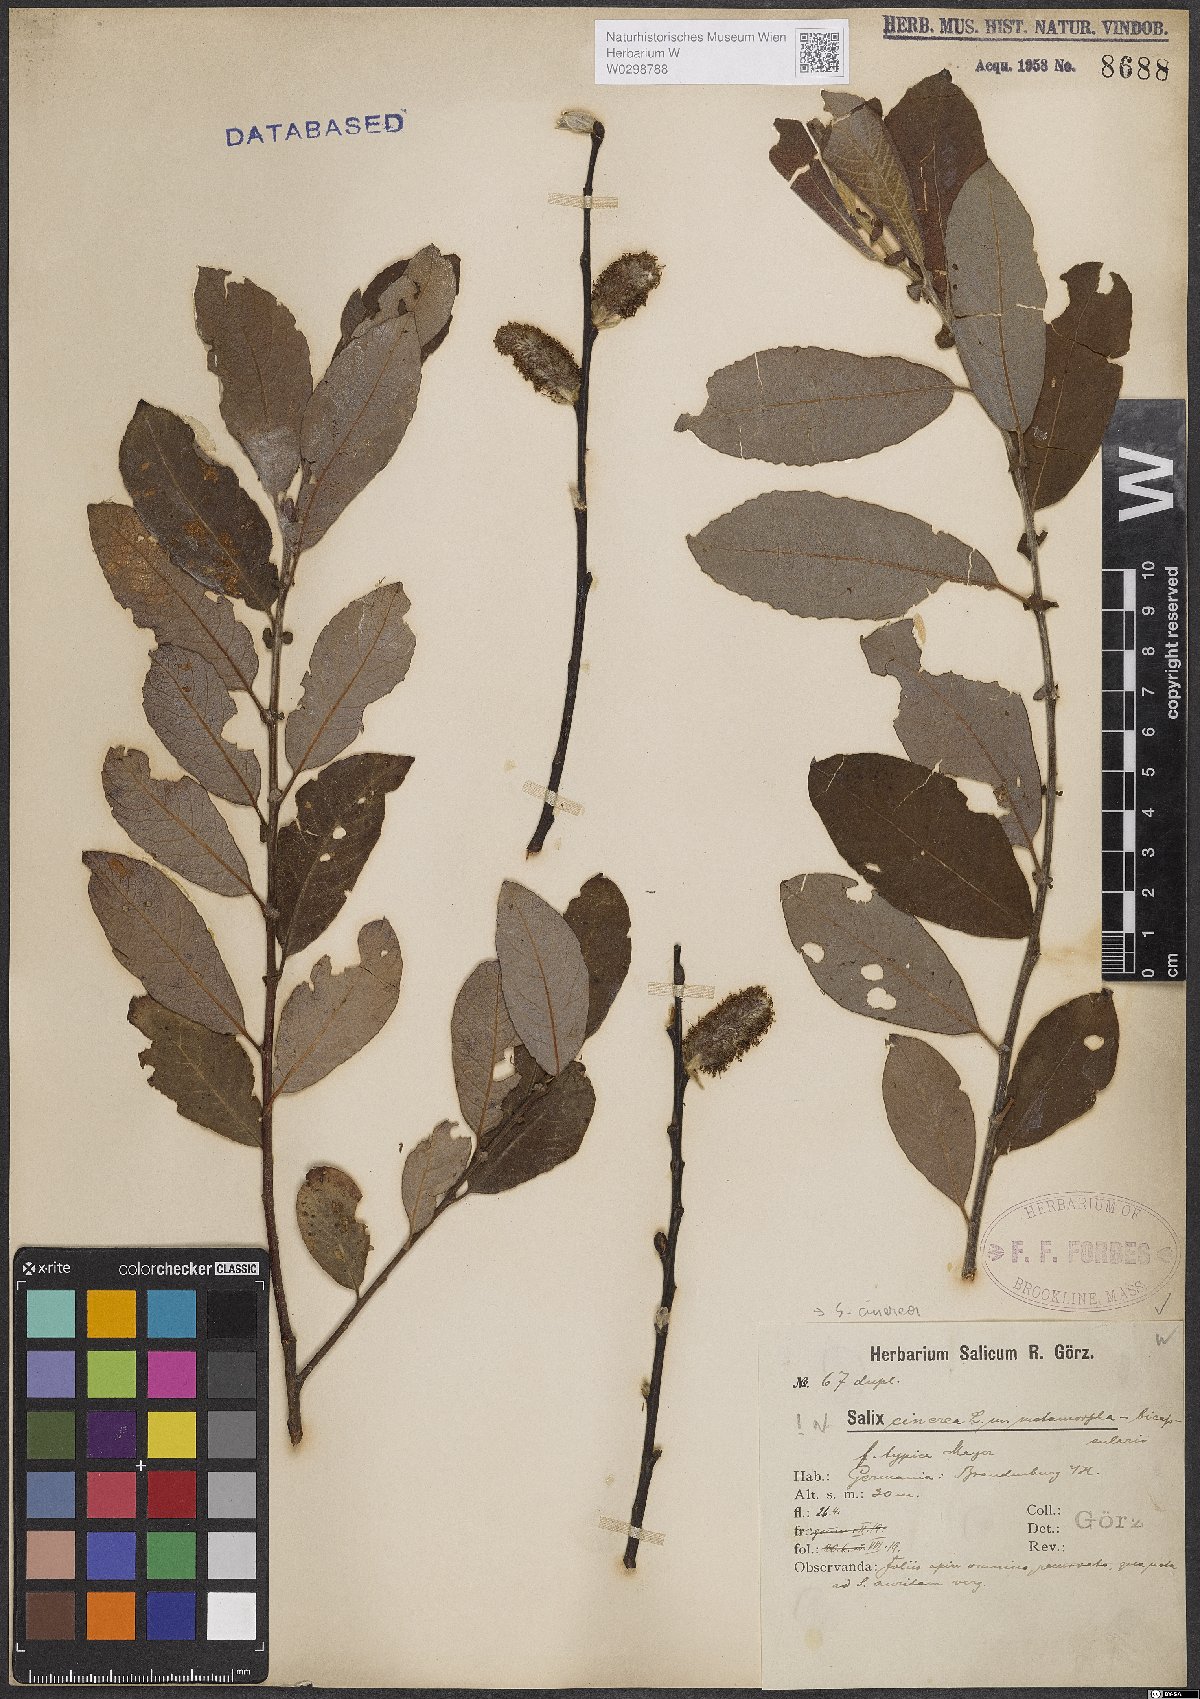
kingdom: Plantae
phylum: Tracheophyta
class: Magnoliopsida
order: Malpighiales
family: Salicaceae
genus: Salix
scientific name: Salix cinerea
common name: Common sallow
